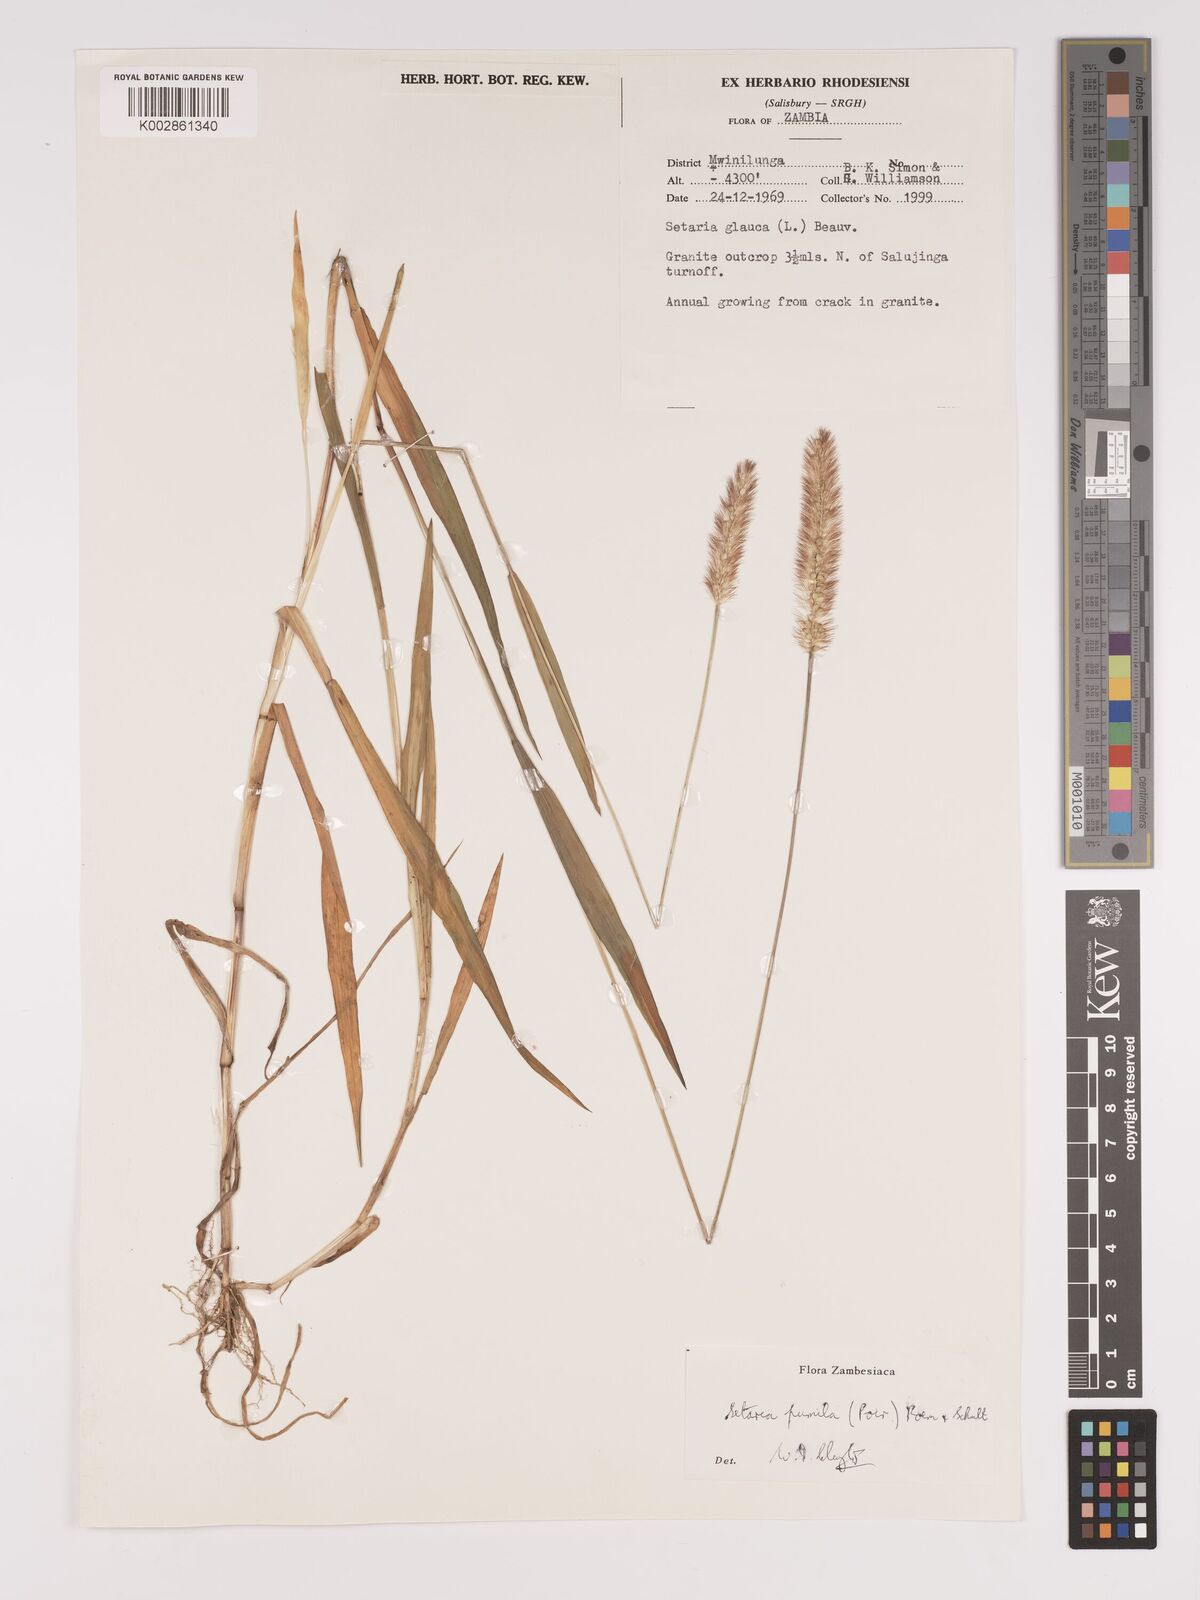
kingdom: Plantae
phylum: Tracheophyta
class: Liliopsida
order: Poales
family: Poaceae
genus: Setaria
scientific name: Setaria pumila
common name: Yellow bristle-grass
